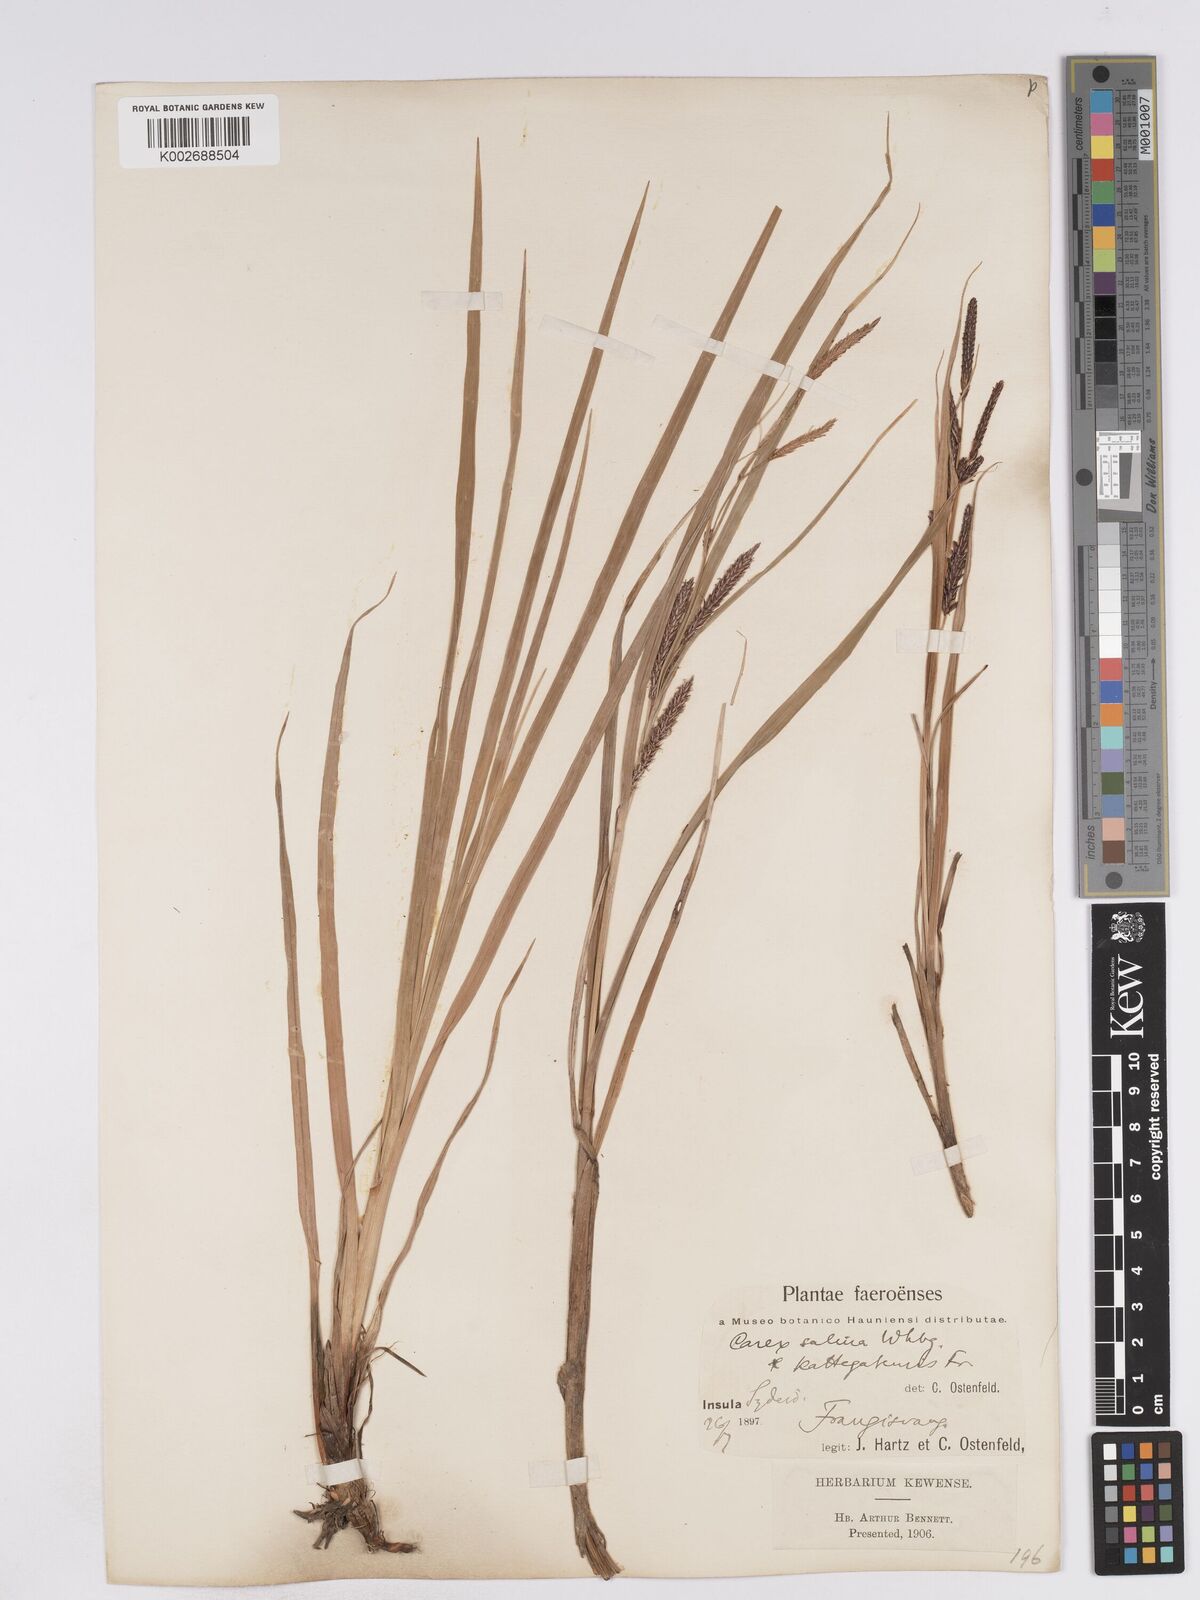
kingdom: Plantae
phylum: Tracheophyta
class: Liliopsida
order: Poales
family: Cyperaceae
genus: Carex
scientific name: Carex recta
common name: Estuarine sedge
